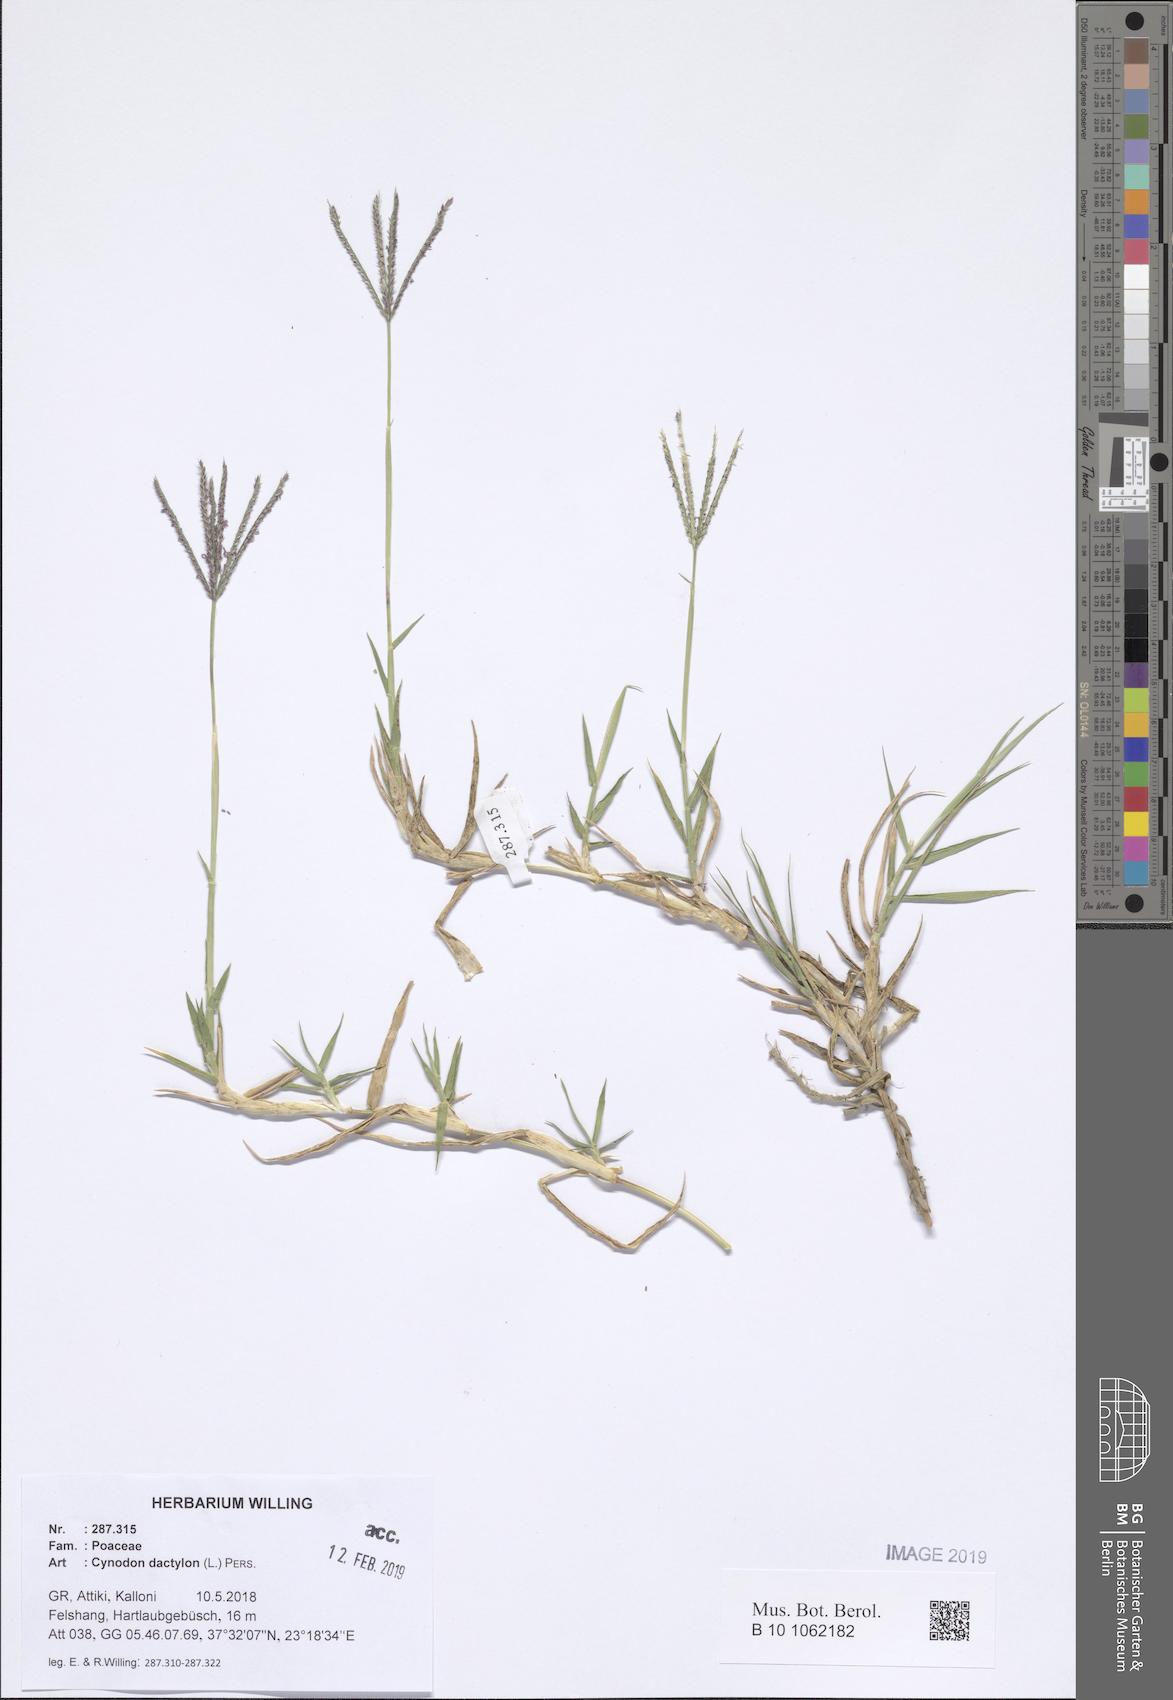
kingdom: Plantae
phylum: Tracheophyta
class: Liliopsida
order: Poales
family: Poaceae
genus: Cynodon
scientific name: Cynodon dactylon
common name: Bermuda grass
